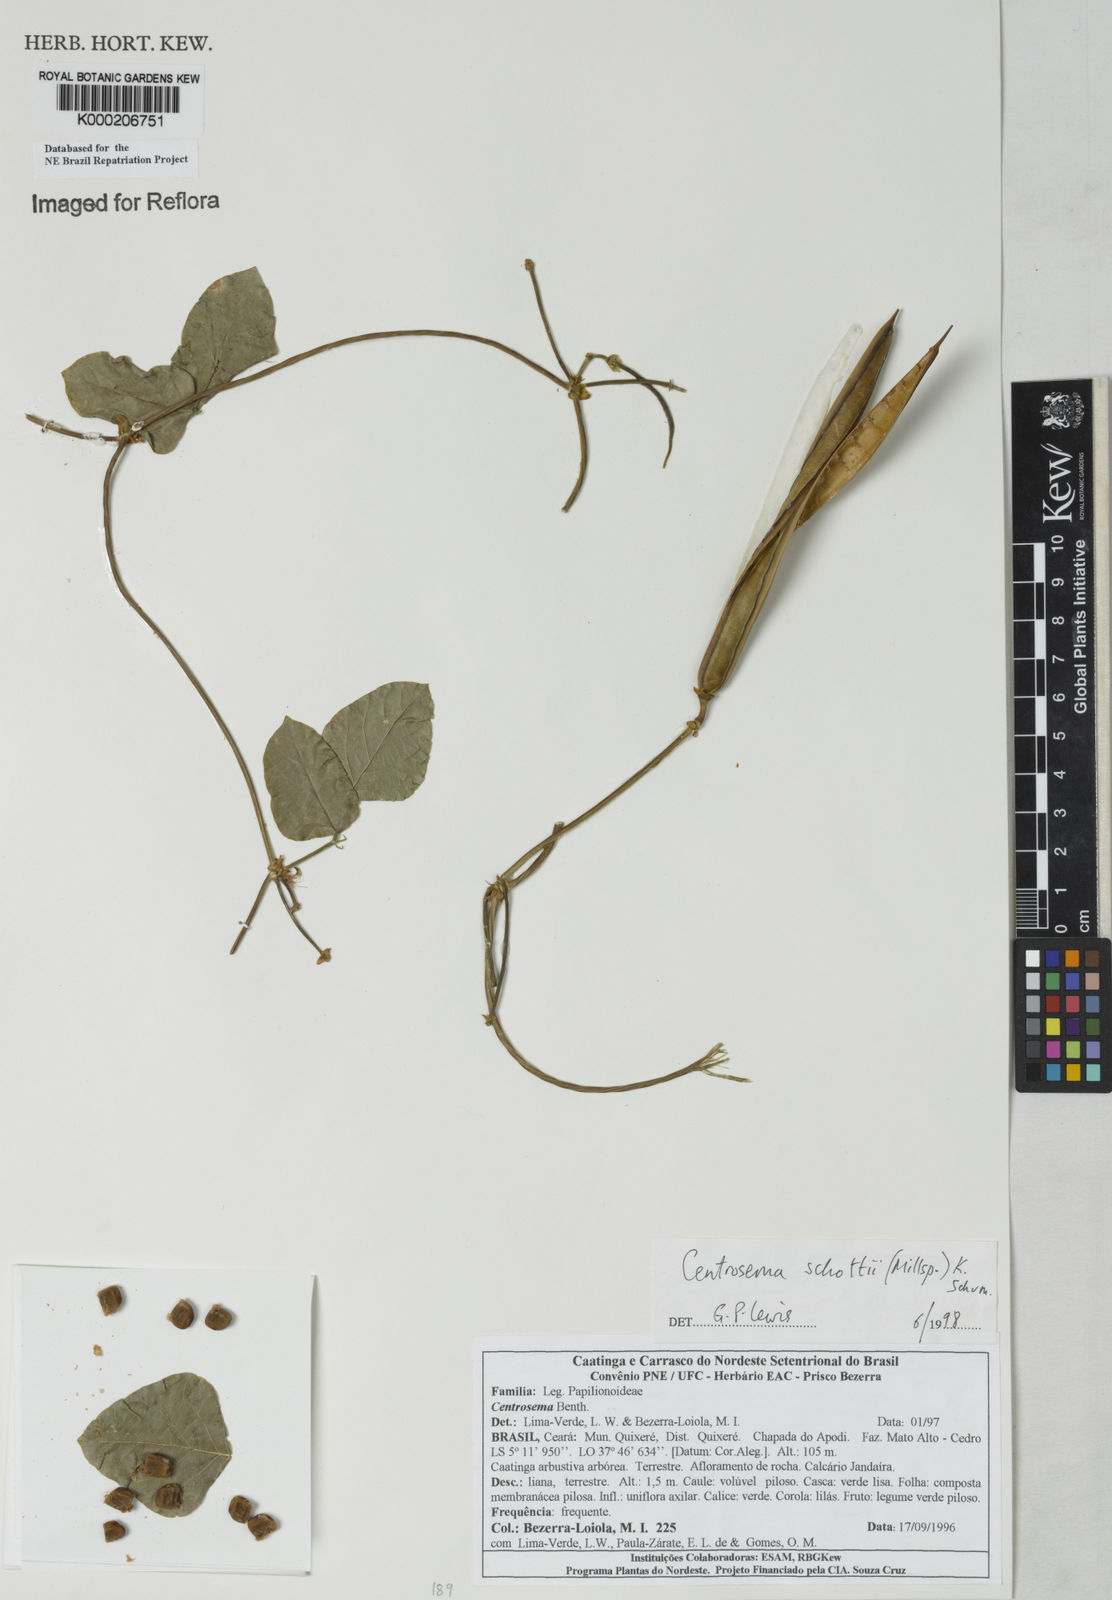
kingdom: Plantae
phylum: Tracheophyta
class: Magnoliopsida
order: Fabales
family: Fabaceae
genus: Centrosema
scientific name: Centrosema schottii
